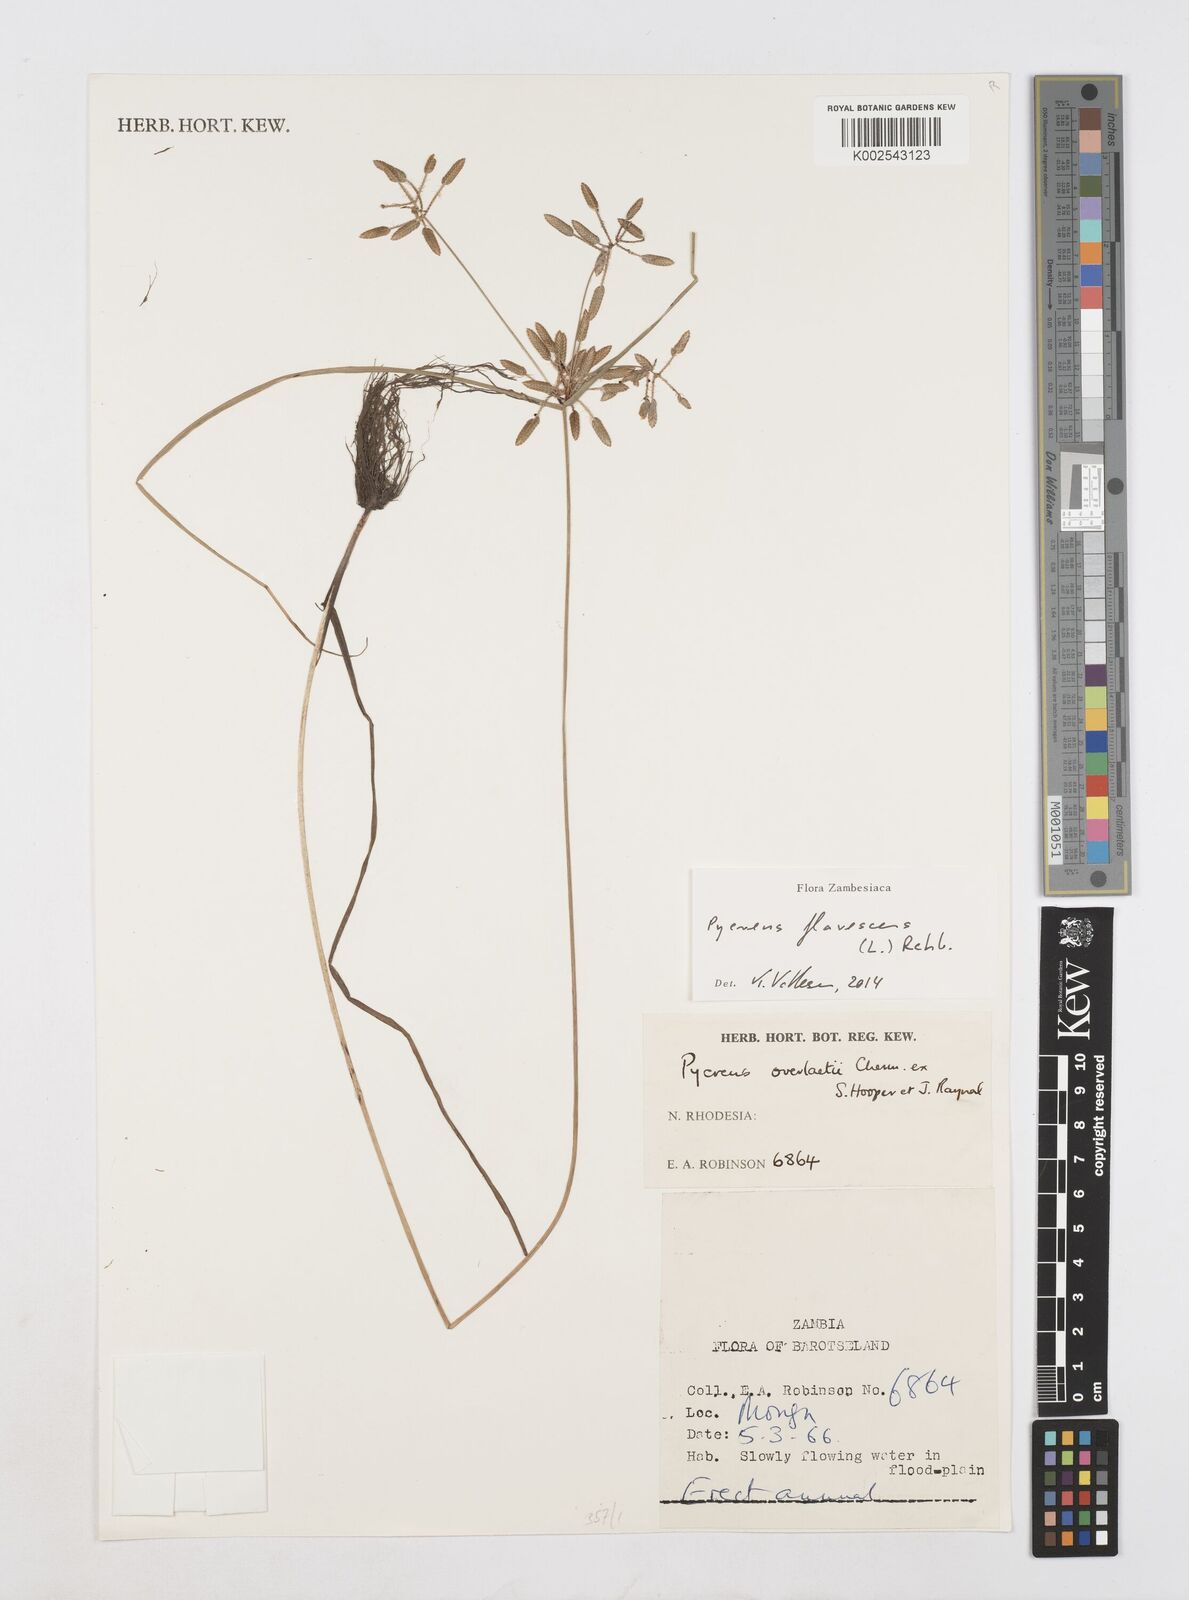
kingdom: Plantae
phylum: Tracheophyta
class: Liliopsida
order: Poales
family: Cyperaceae
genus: Cyperus
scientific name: Cyperus flavescens
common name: Yellow galingale
